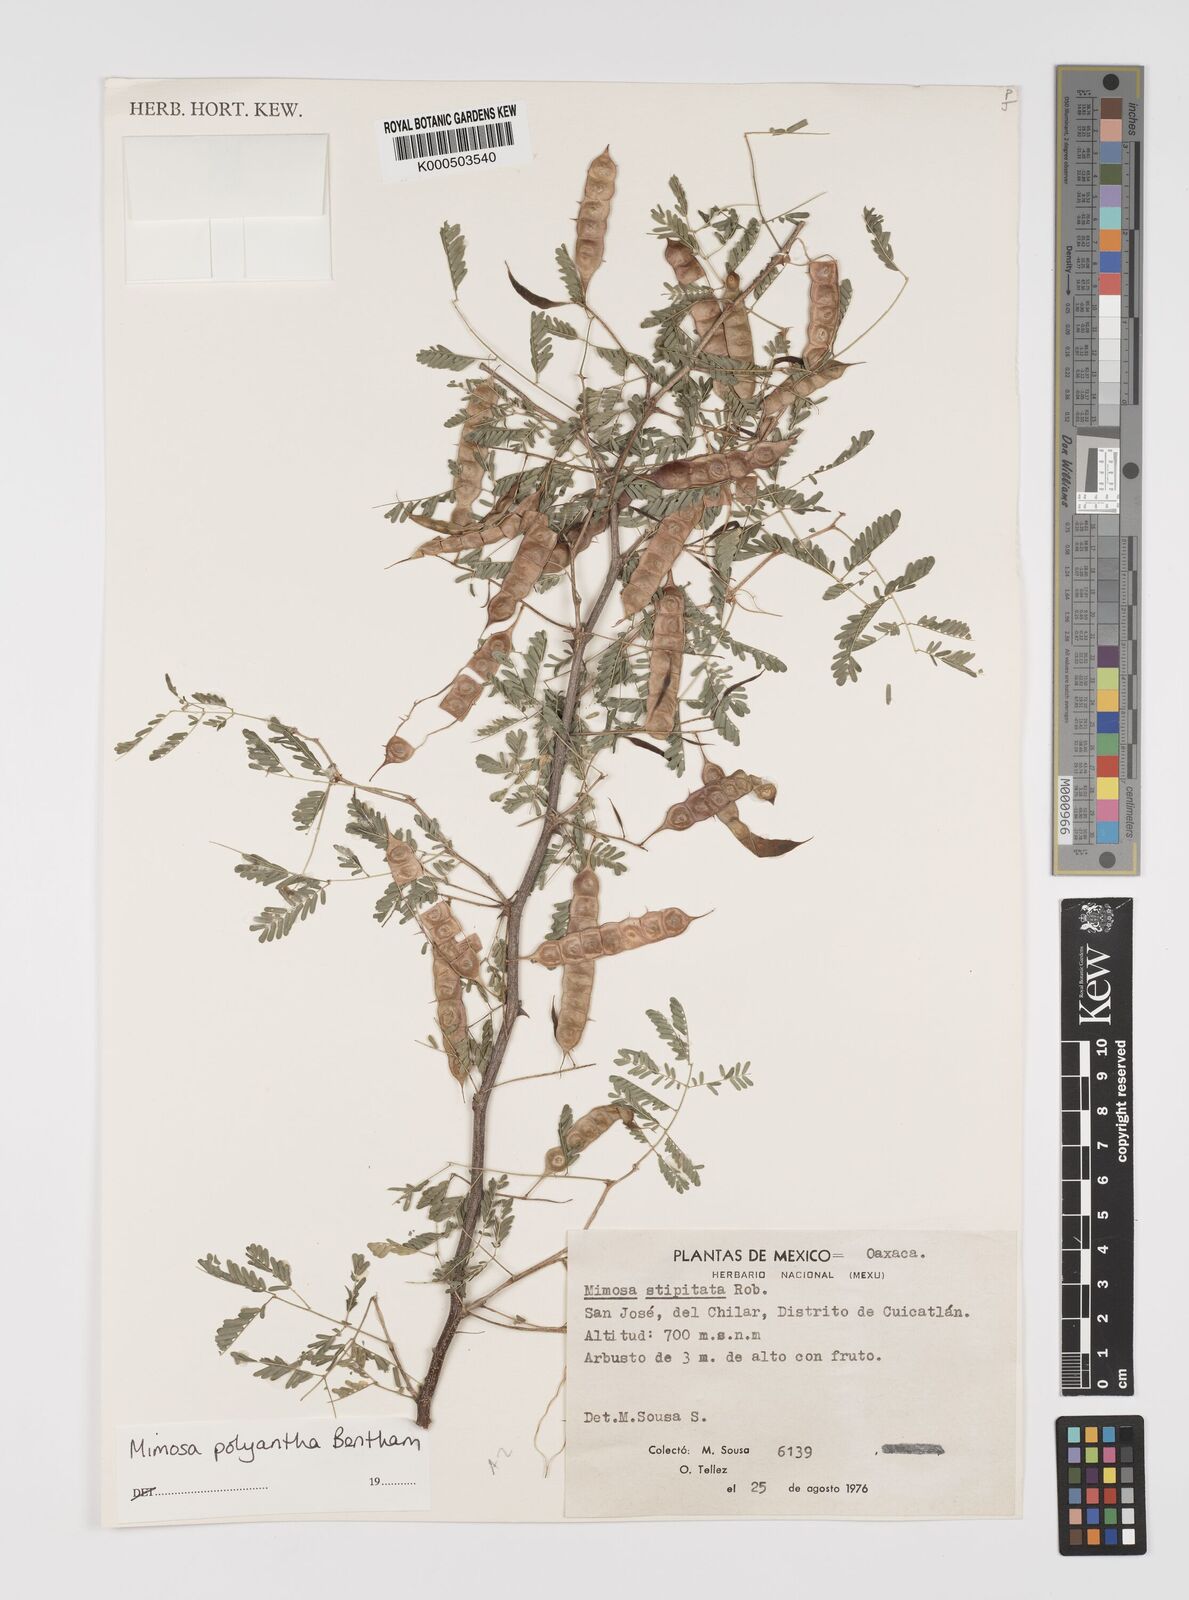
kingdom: Plantae
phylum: Tracheophyta
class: Magnoliopsida
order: Fabales
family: Fabaceae
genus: Mimosa
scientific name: Mimosa polyantha
